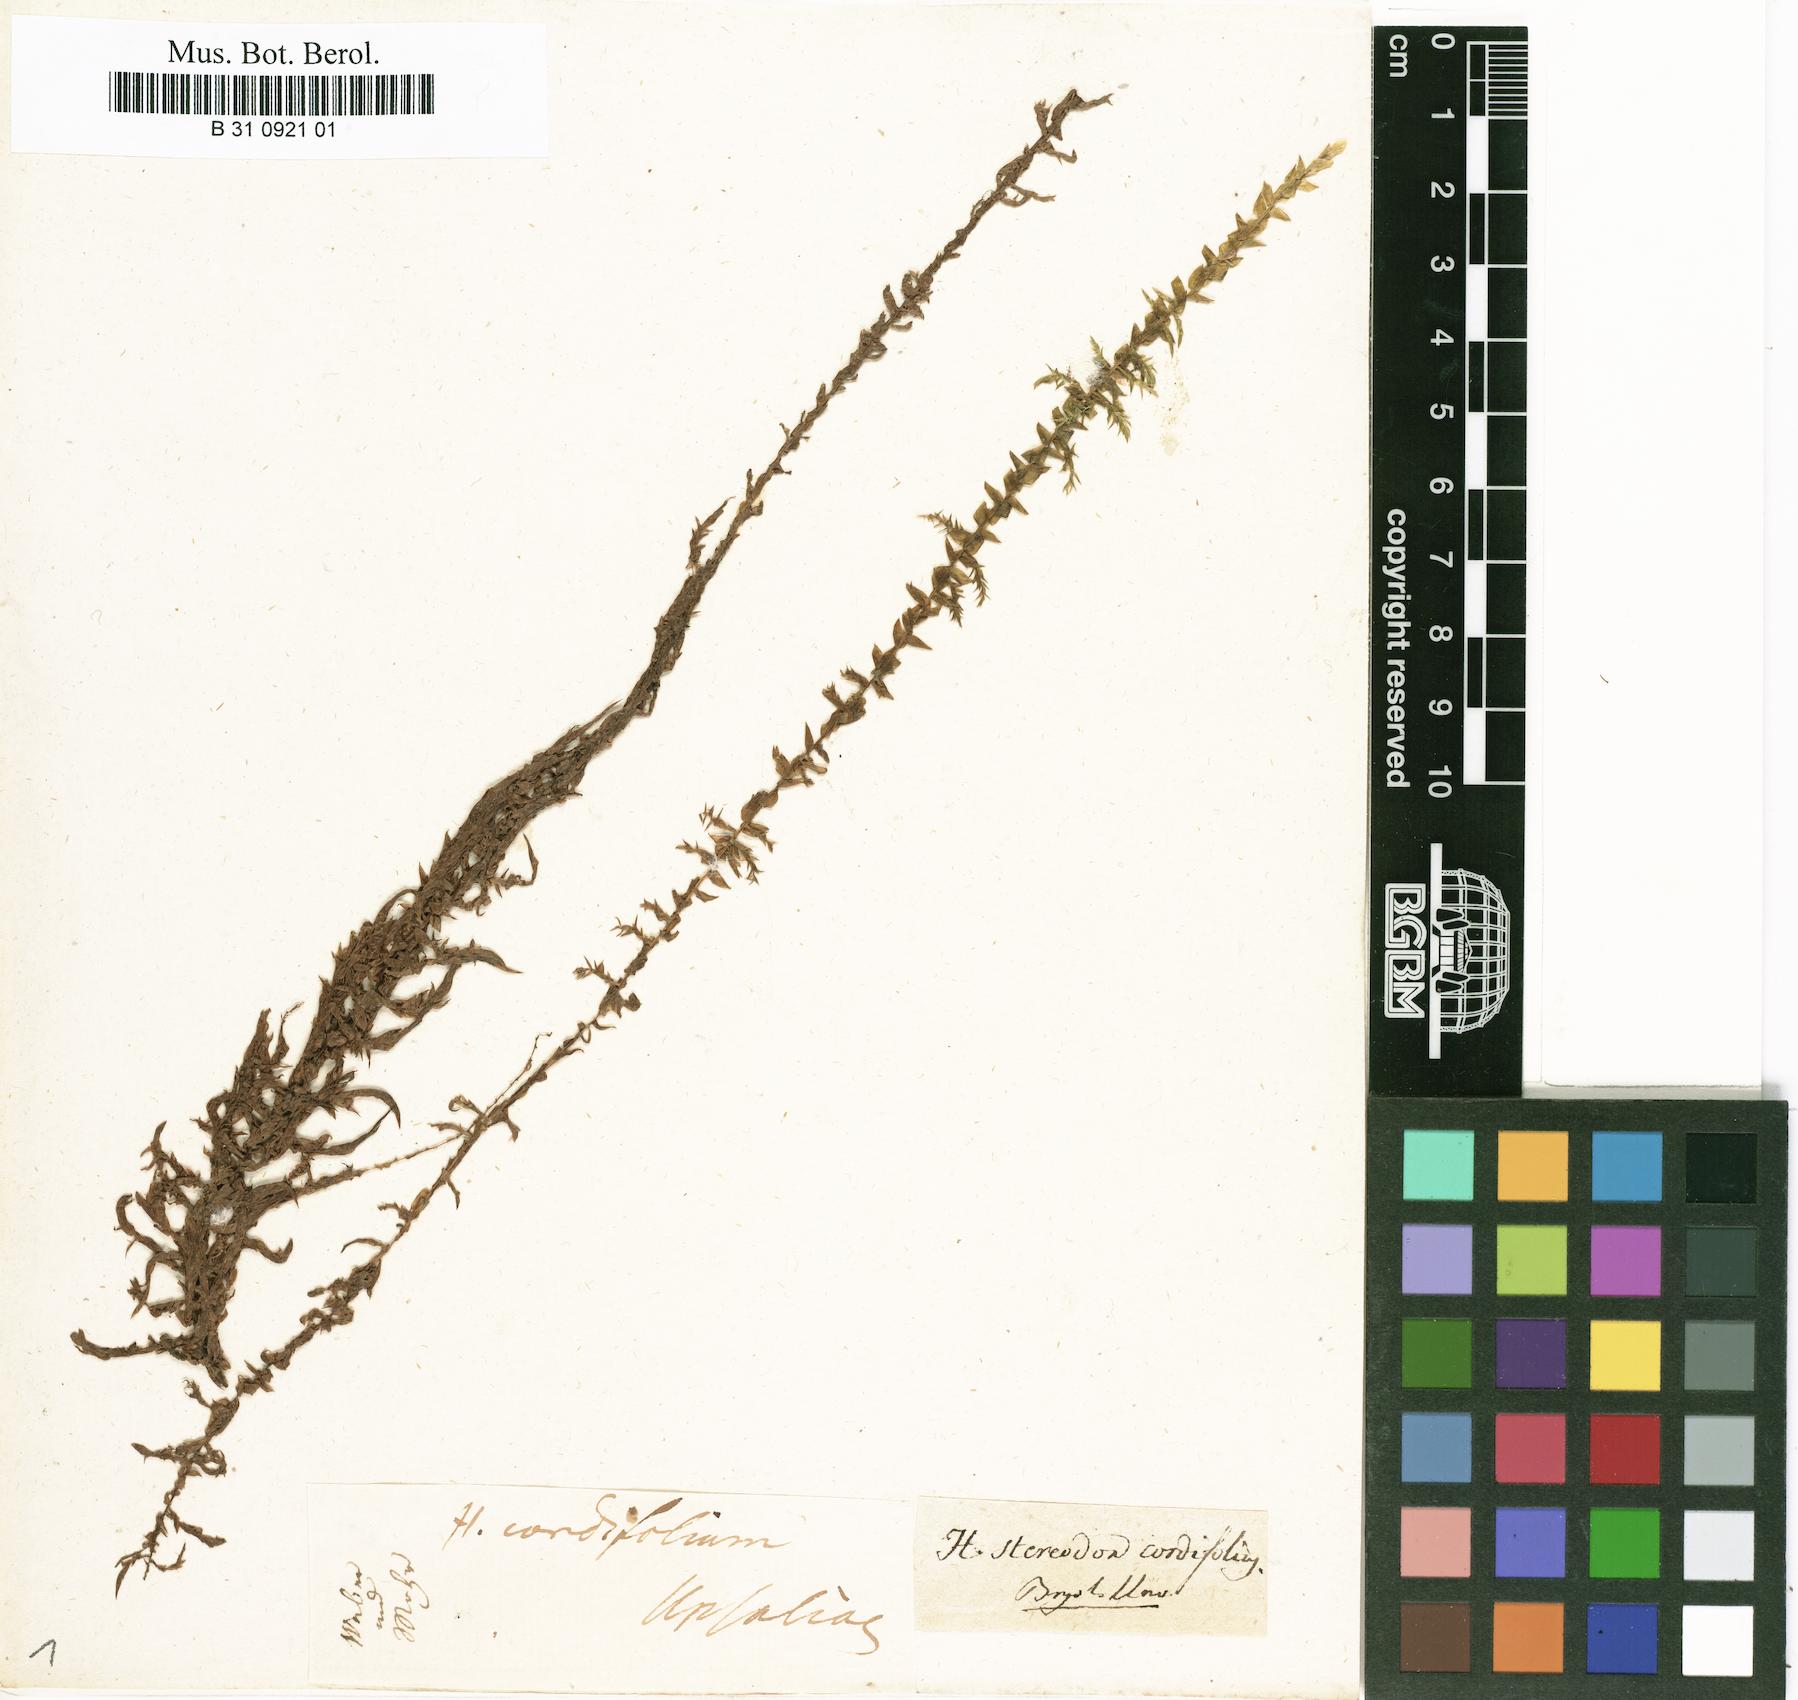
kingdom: Plantae
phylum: Bryophyta
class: Bryopsida
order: Hypnales
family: Calliergonaceae
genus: Calliergon
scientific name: Calliergon cordifolium
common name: Heart-leaved spear moss
